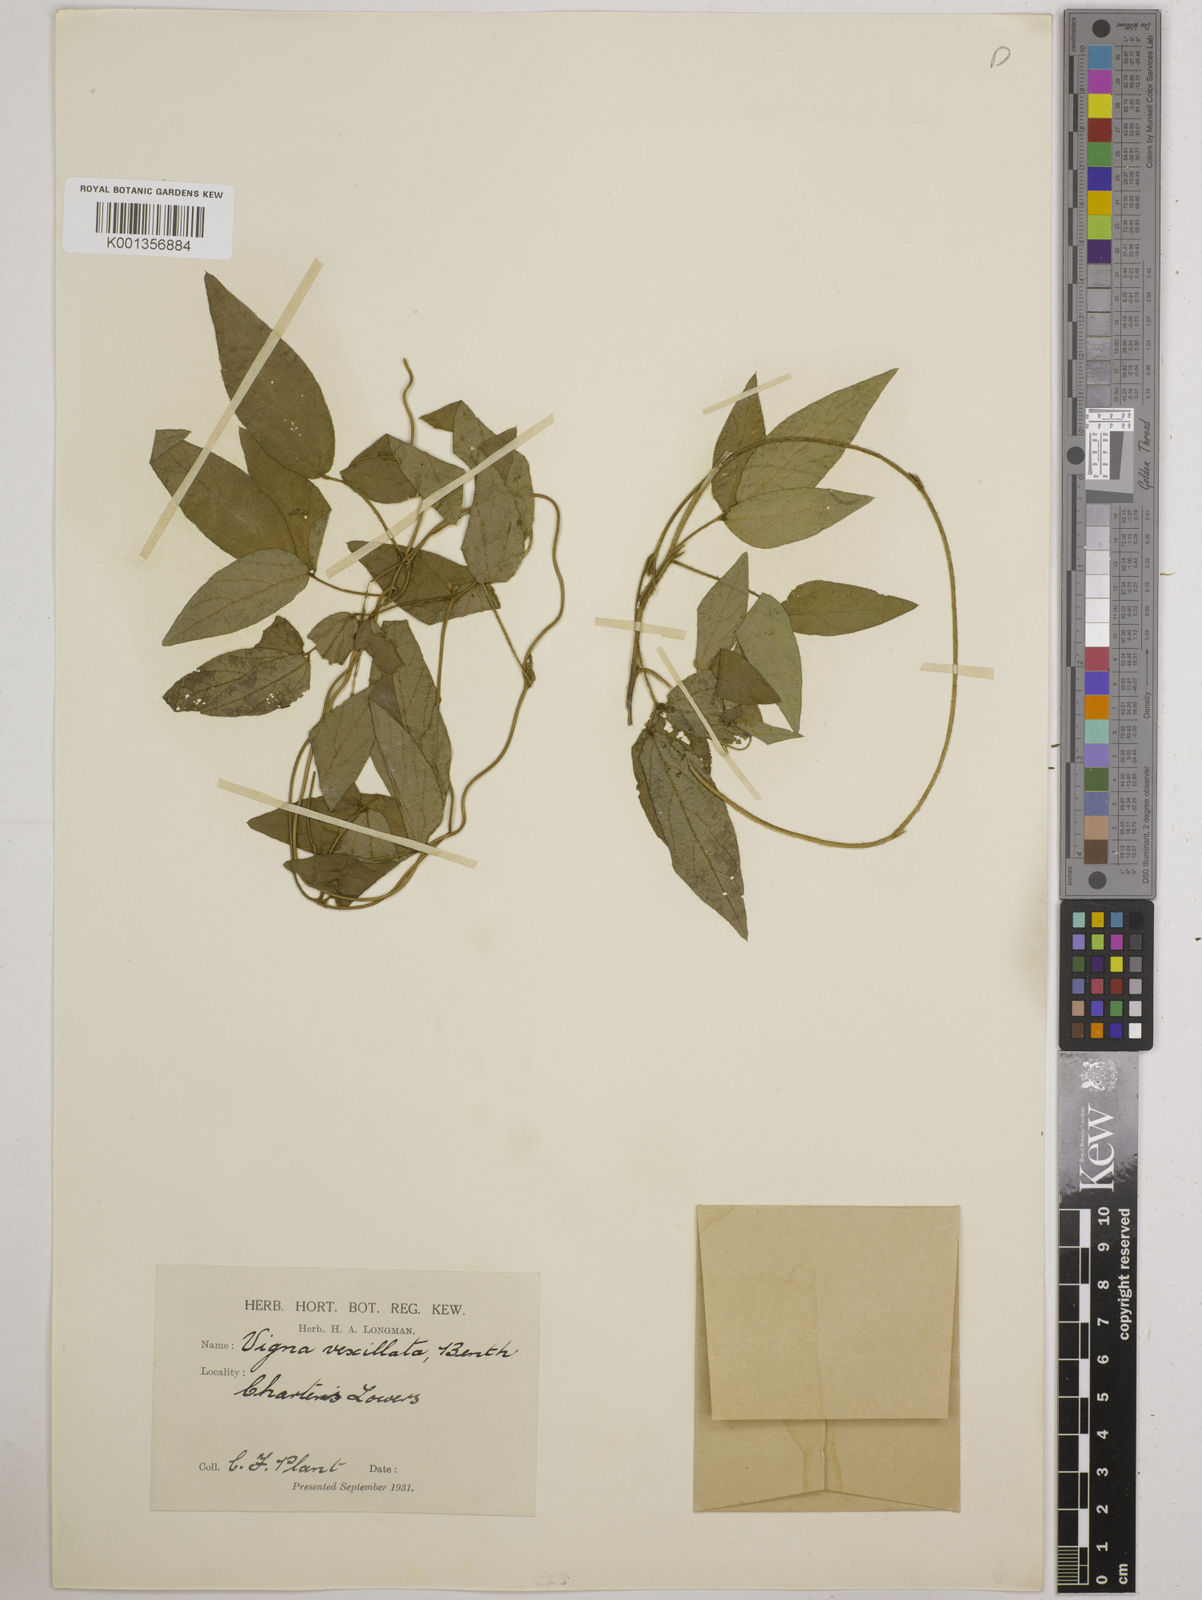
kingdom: Plantae
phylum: Tracheophyta
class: Magnoliopsida
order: Fabales
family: Fabaceae
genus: Vigna
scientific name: Vigna vexillata
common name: Zombi pea
